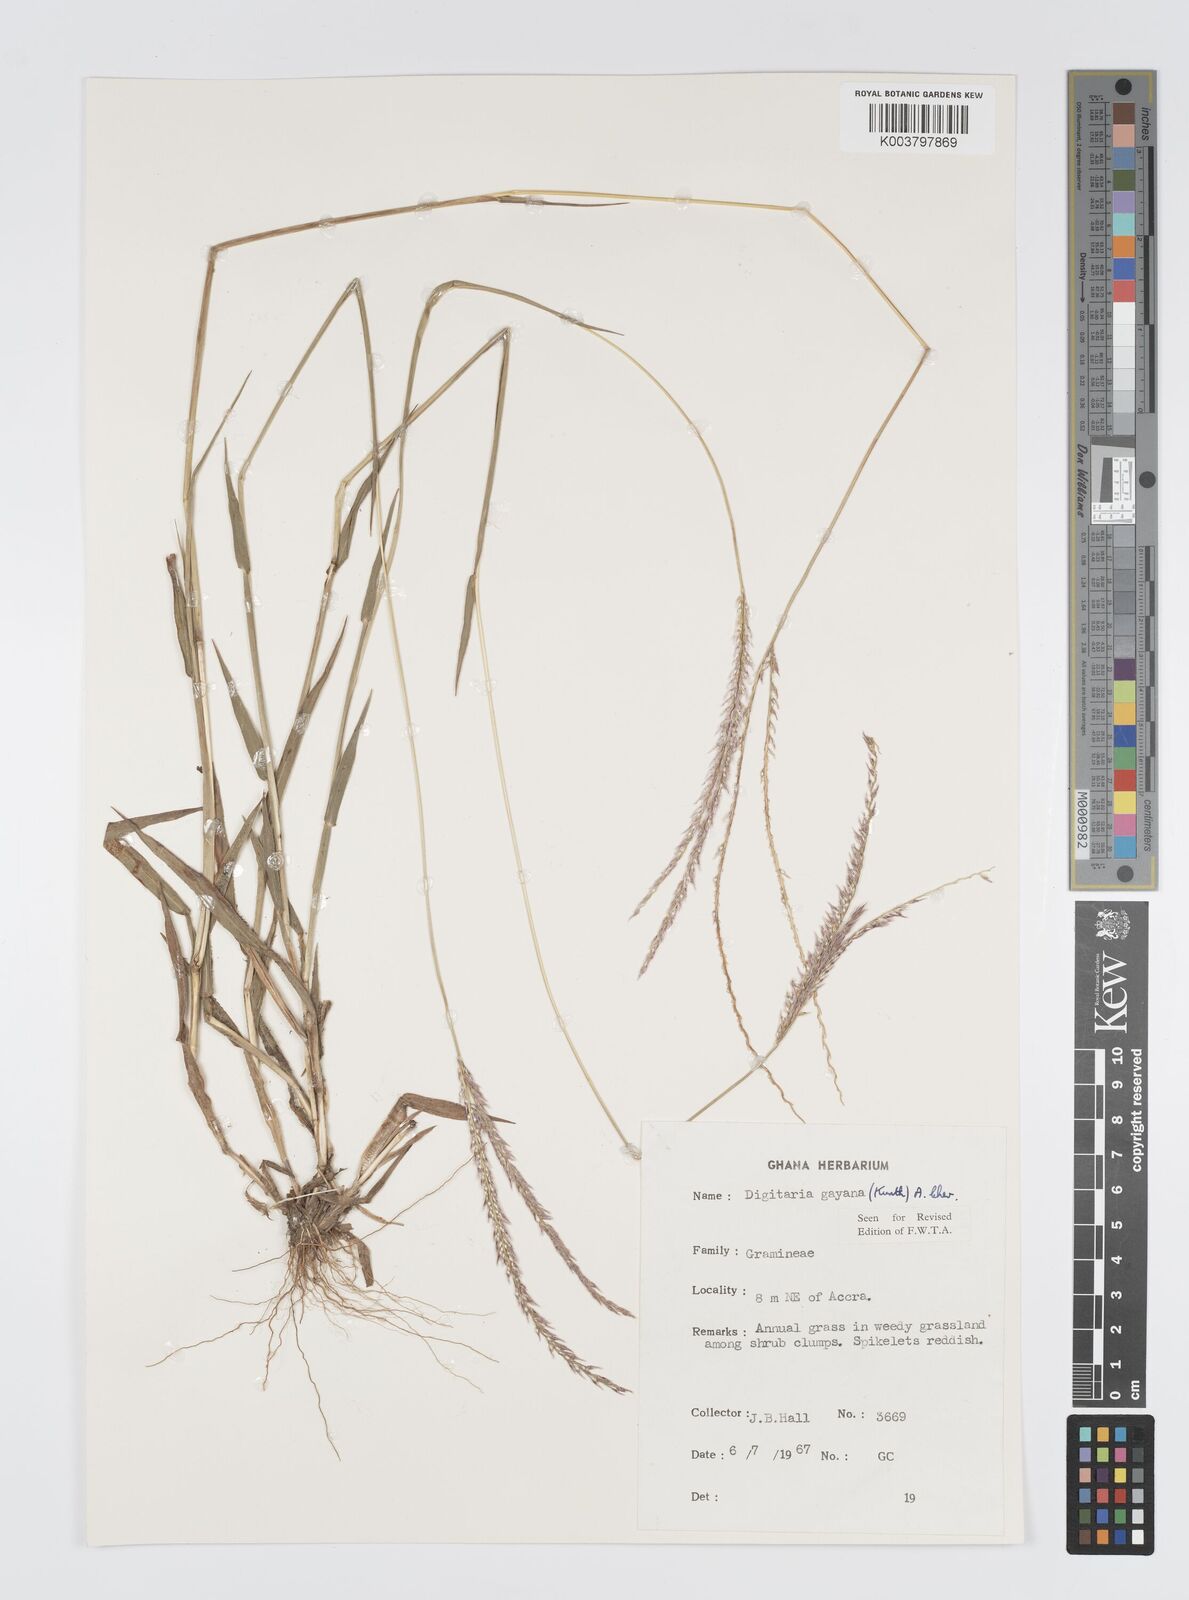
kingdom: Plantae
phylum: Tracheophyta
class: Liliopsida
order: Poales
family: Poaceae
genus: Digitaria
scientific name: Digitaria gayana
